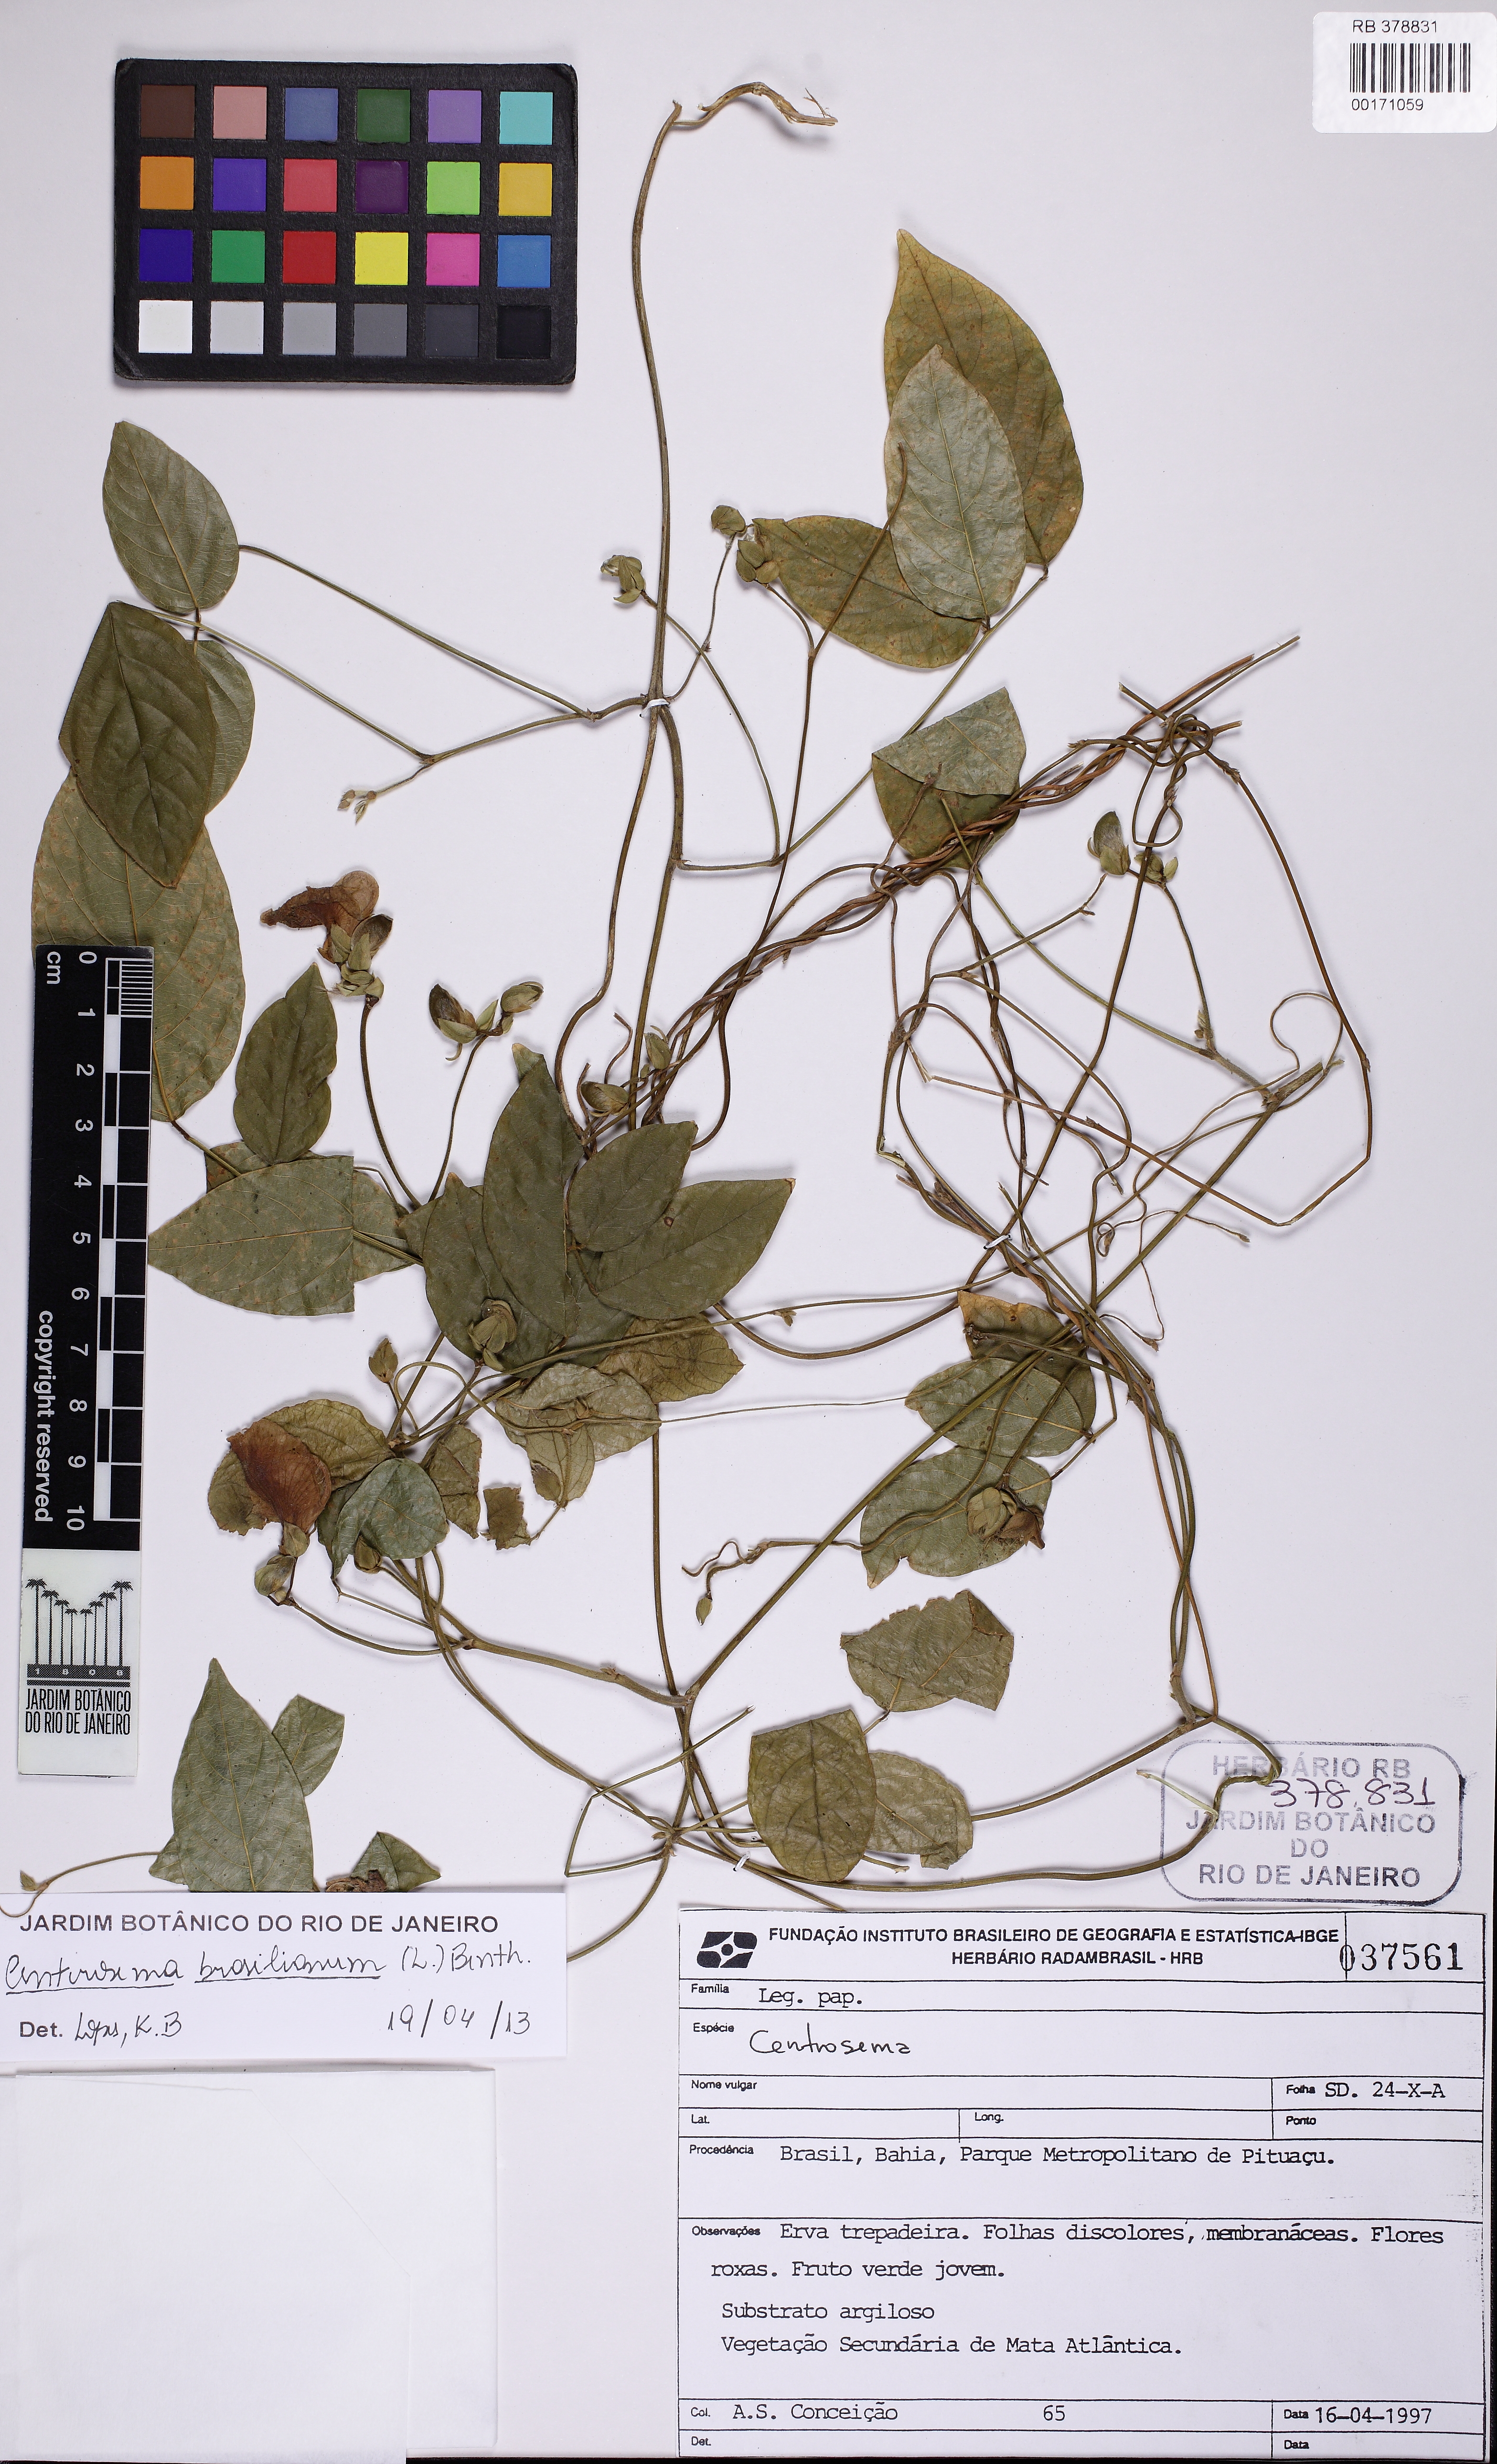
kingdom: Plantae
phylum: Tracheophyta
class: Magnoliopsida
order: Fabales
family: Fabaceae
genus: Centrosema
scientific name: Centrosema brasilianum
